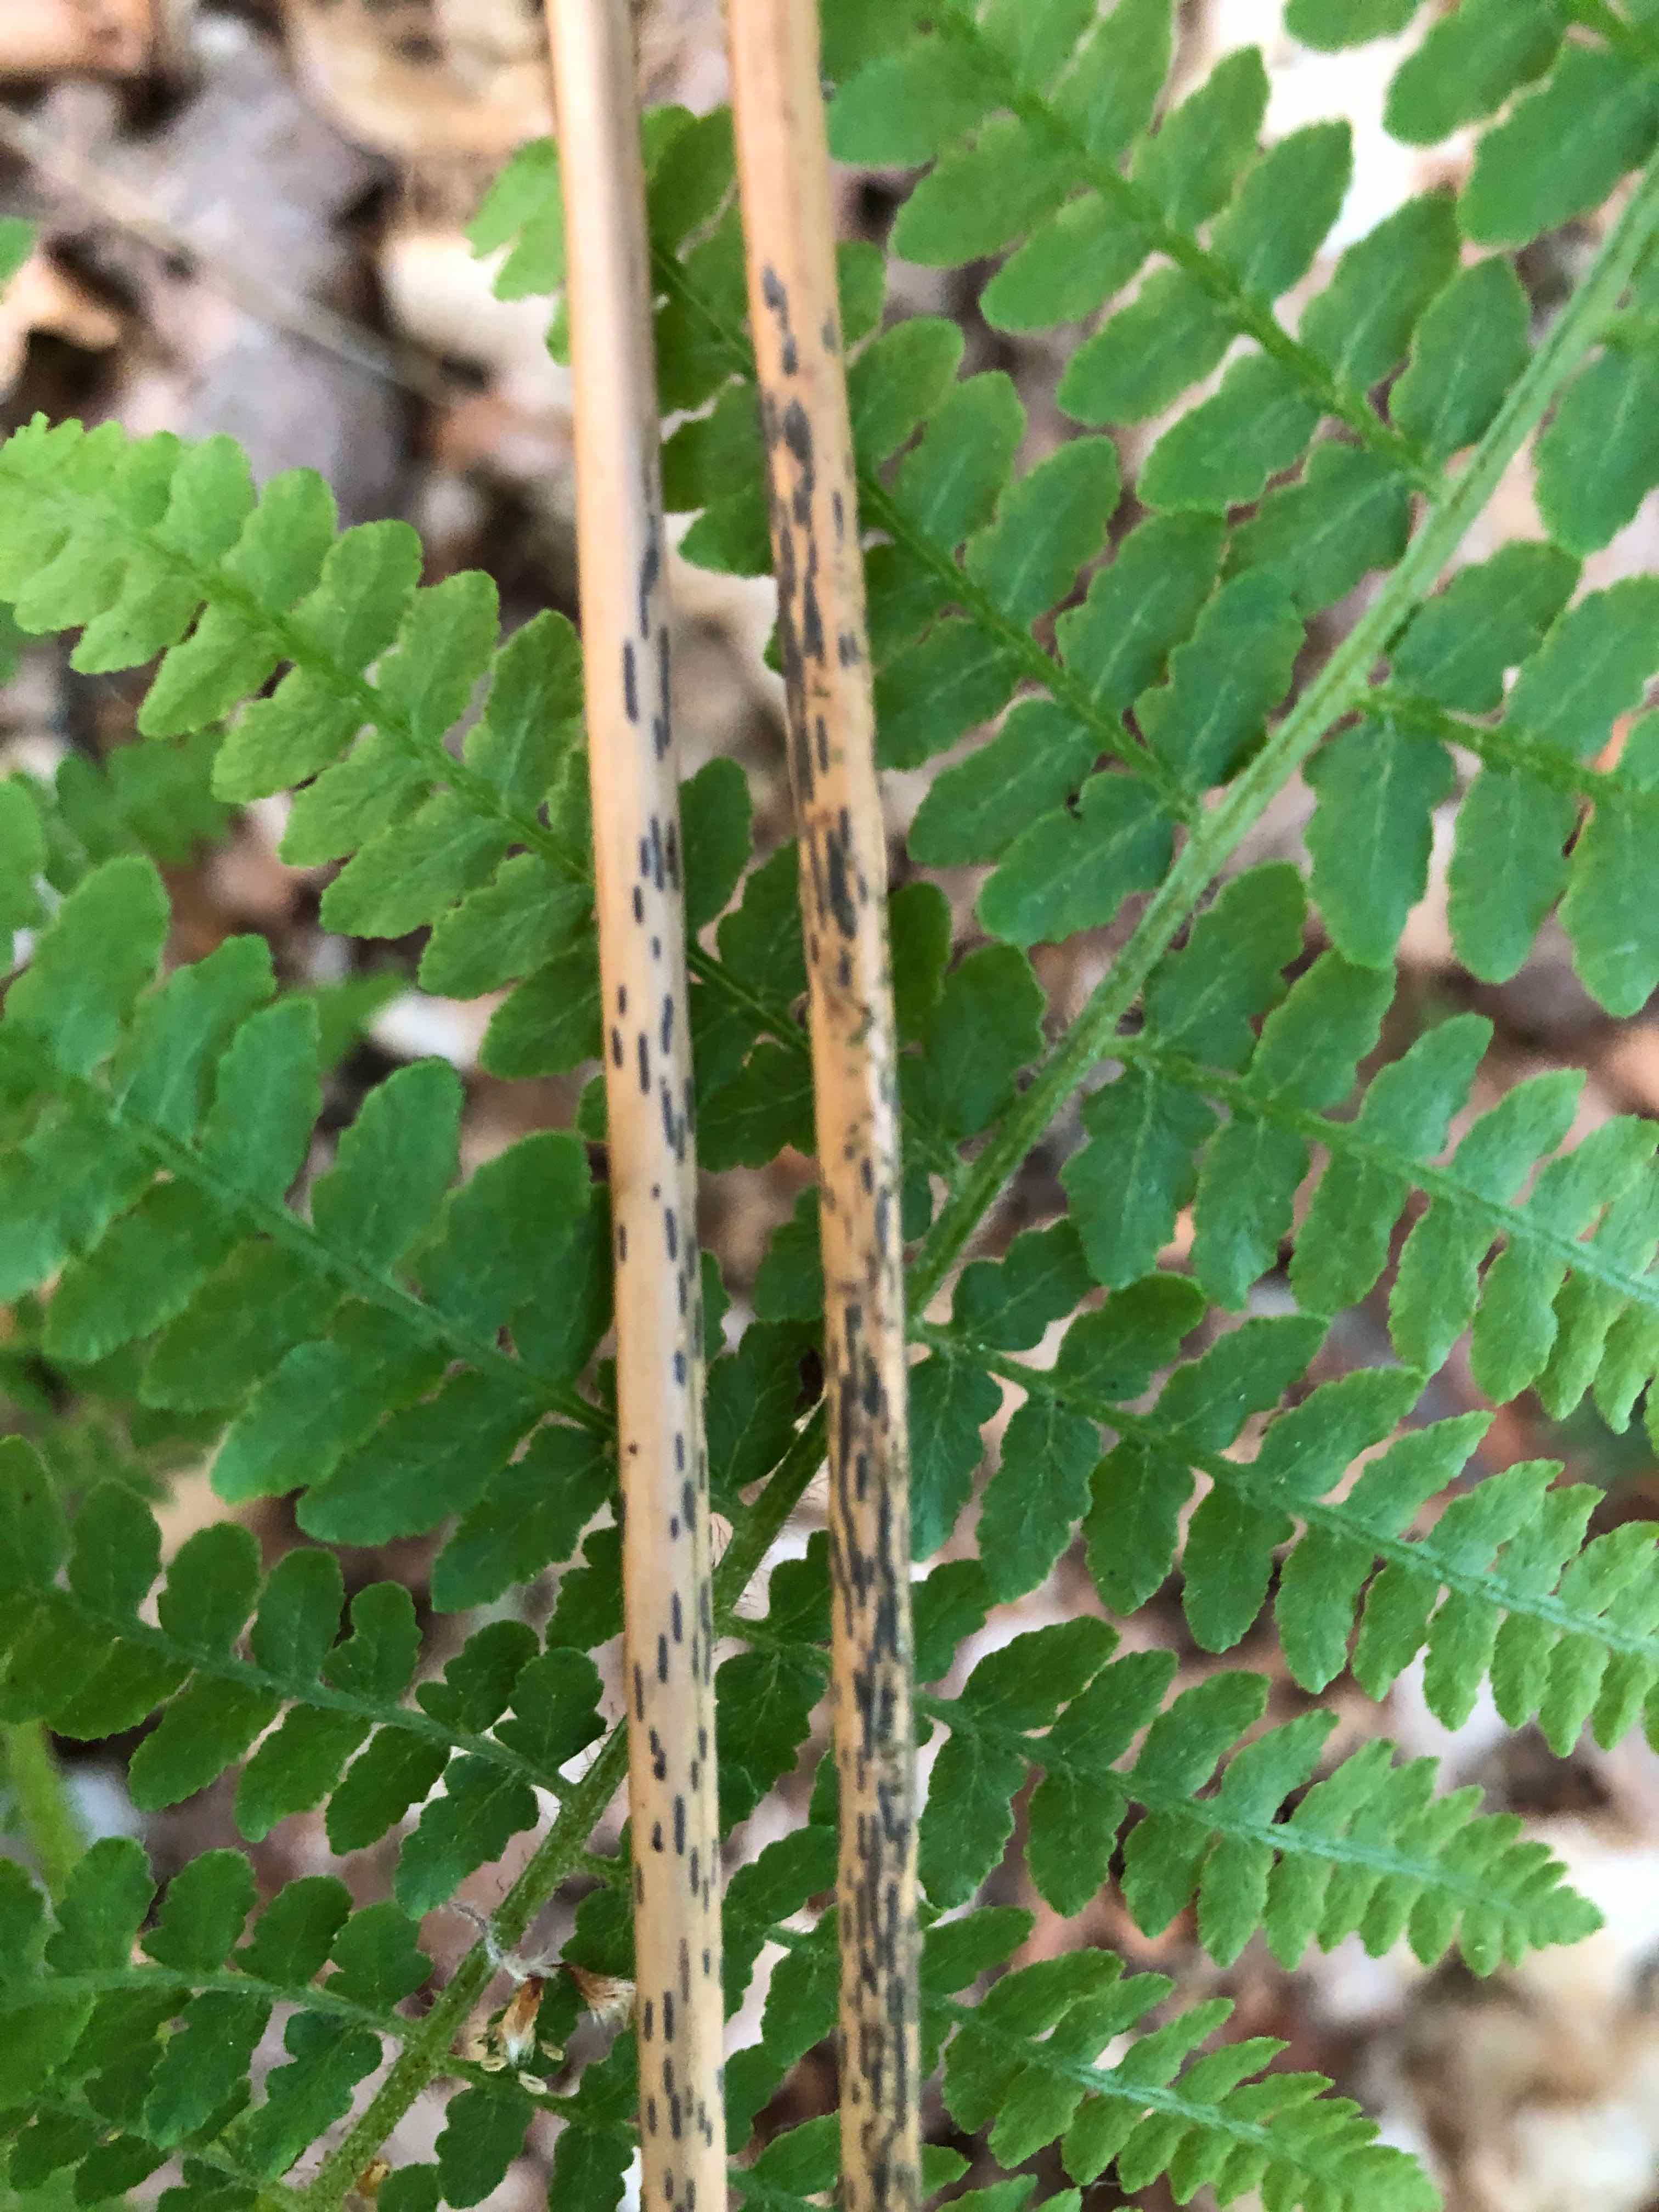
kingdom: Fungi
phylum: Ascomycota
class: Dothideomycetes
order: Pleosporales
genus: Rhopographus
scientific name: Rhopographus filicinus
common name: Bracken map
